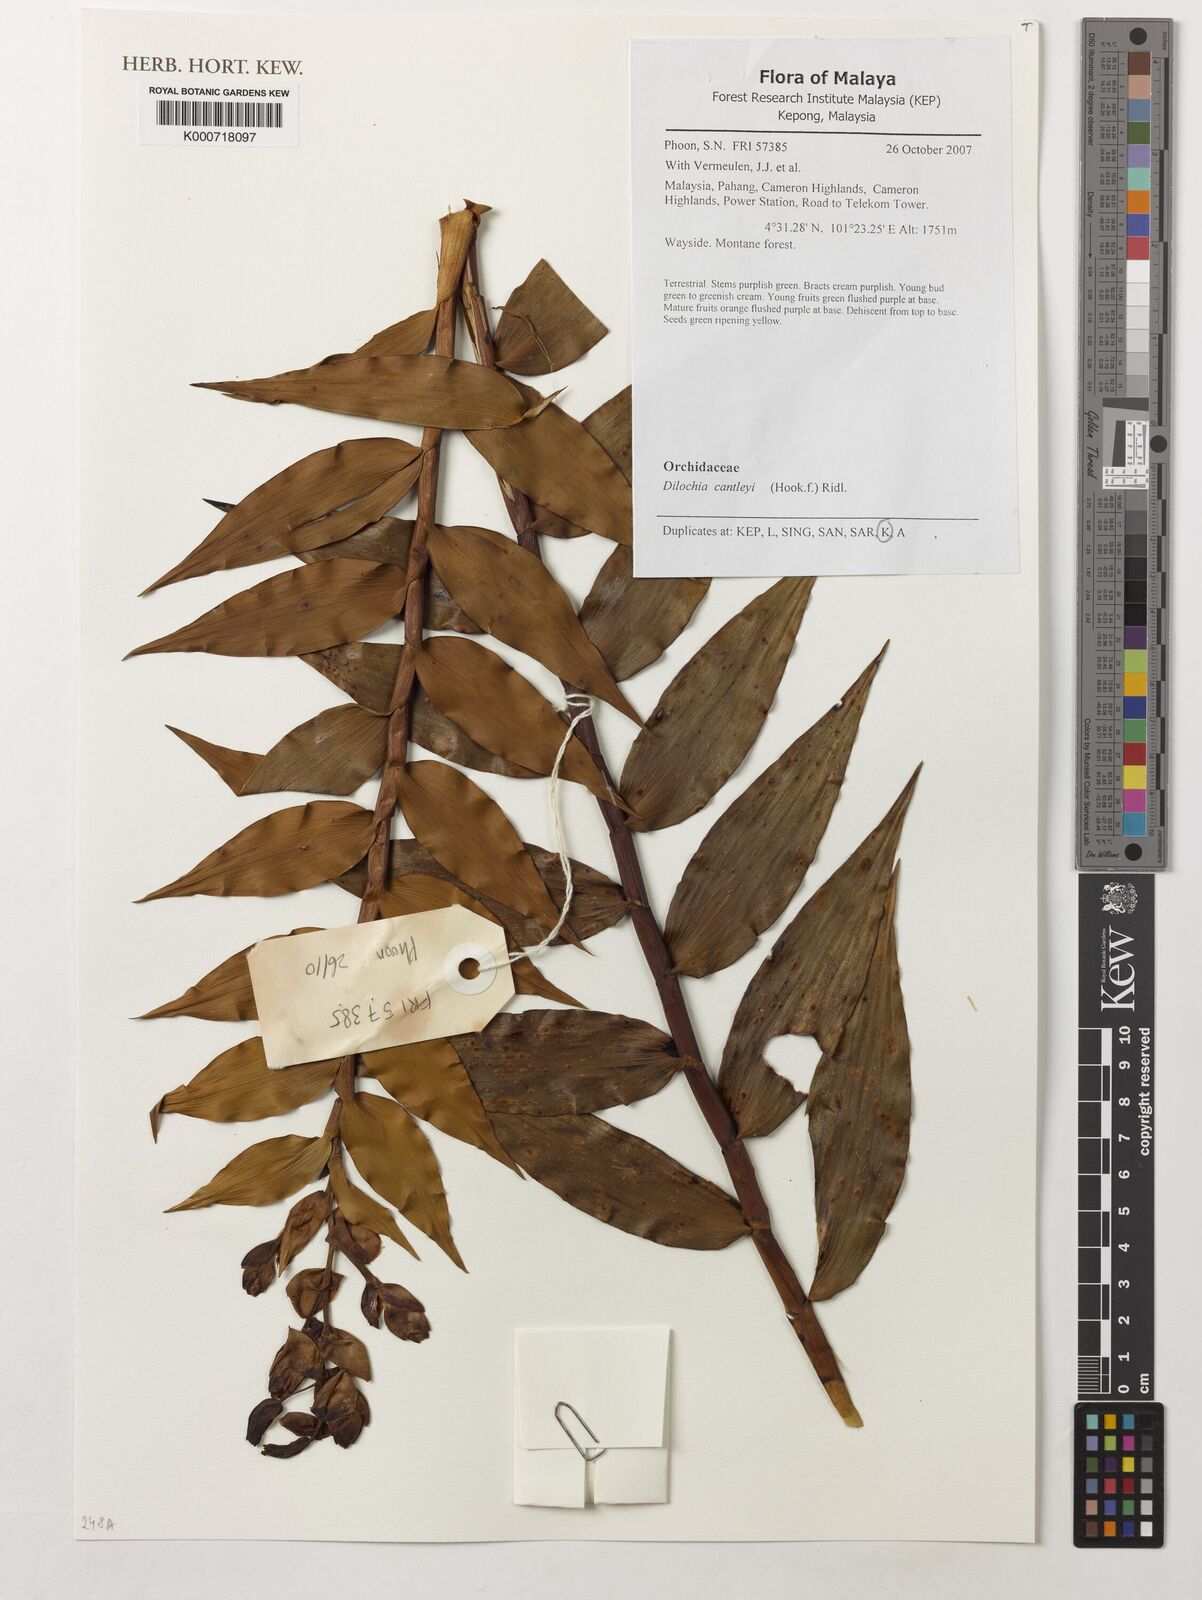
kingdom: Plantae
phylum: Tracheophyta
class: Liliopsida
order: Asparagales
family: Orchidaceae
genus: Dilochia
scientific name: Dilochia cantleyi
